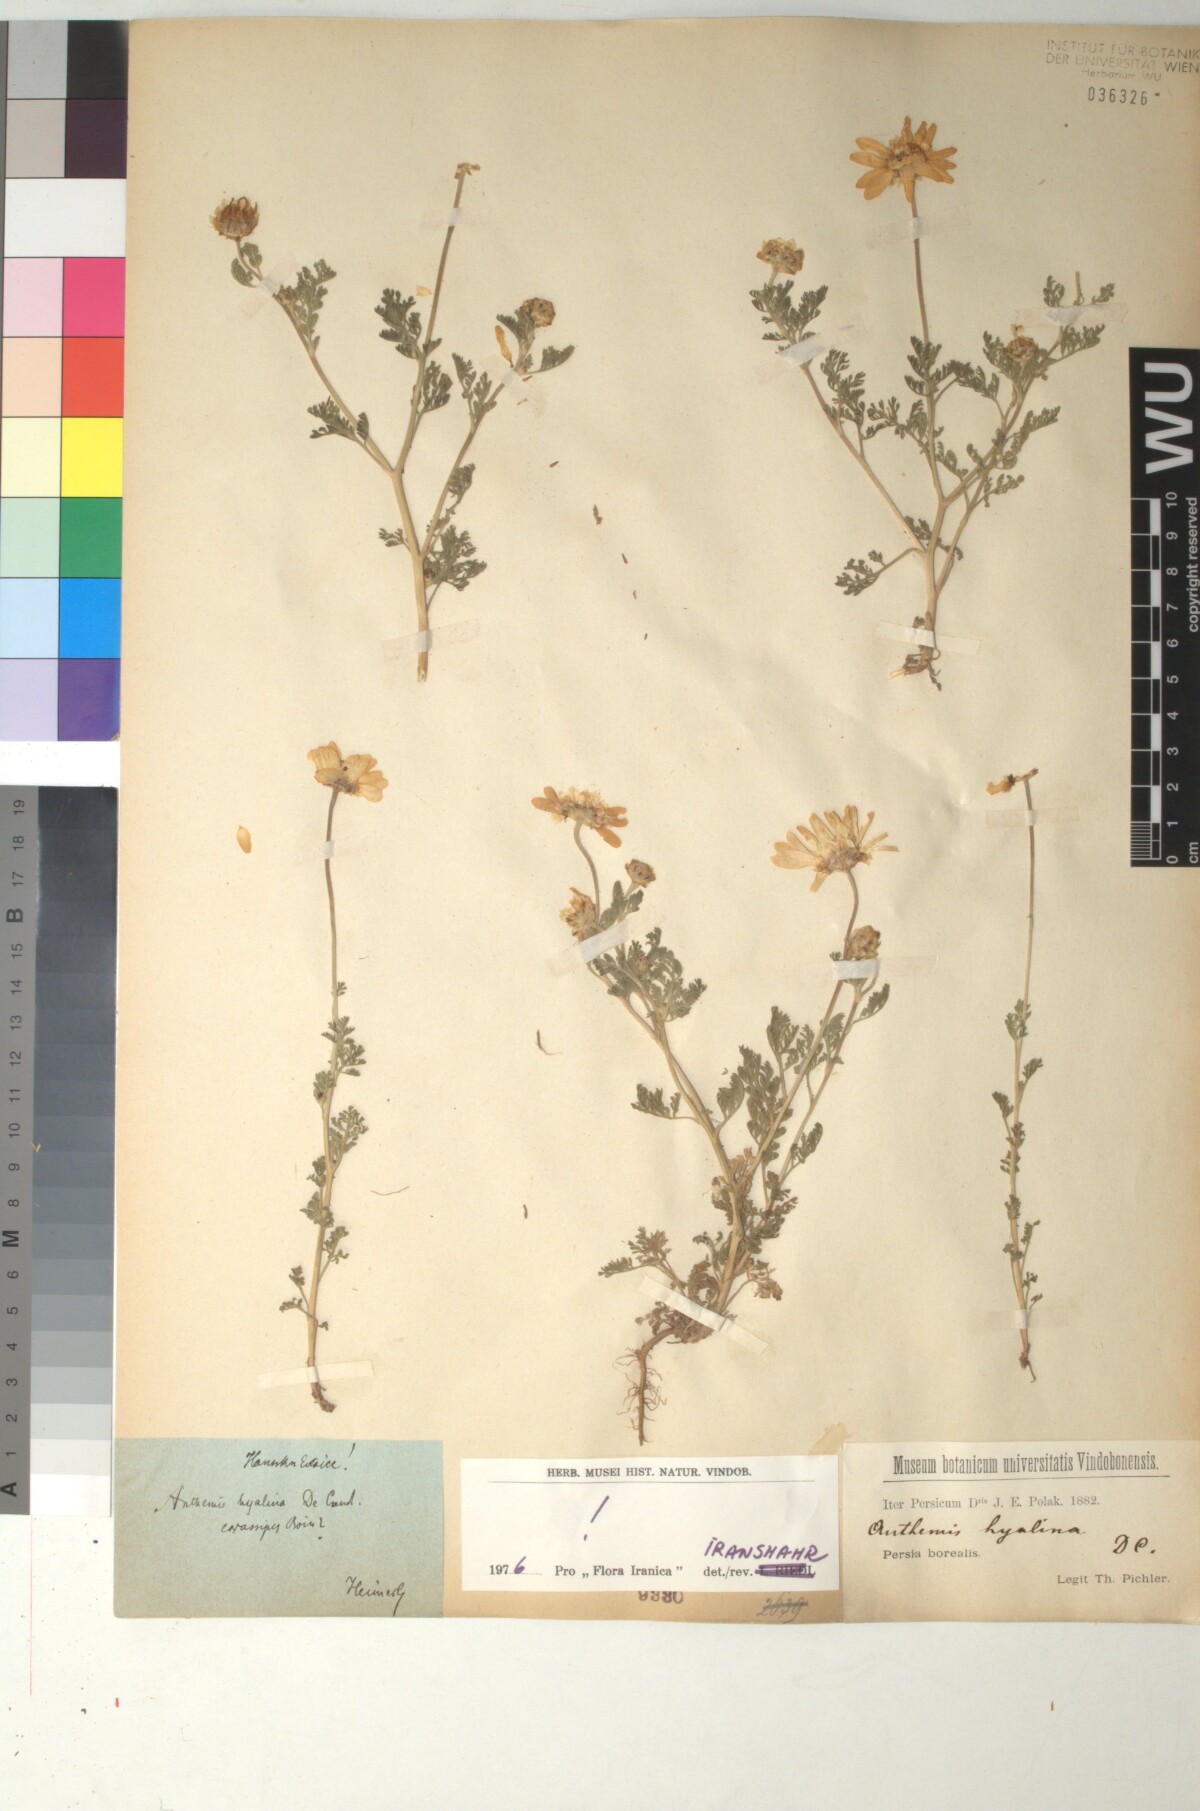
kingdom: Plantae
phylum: Tracheophyta
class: Magnoliopsida
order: Asterales
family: Asteraceae
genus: Anthemis
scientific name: Anthemis hyalina
